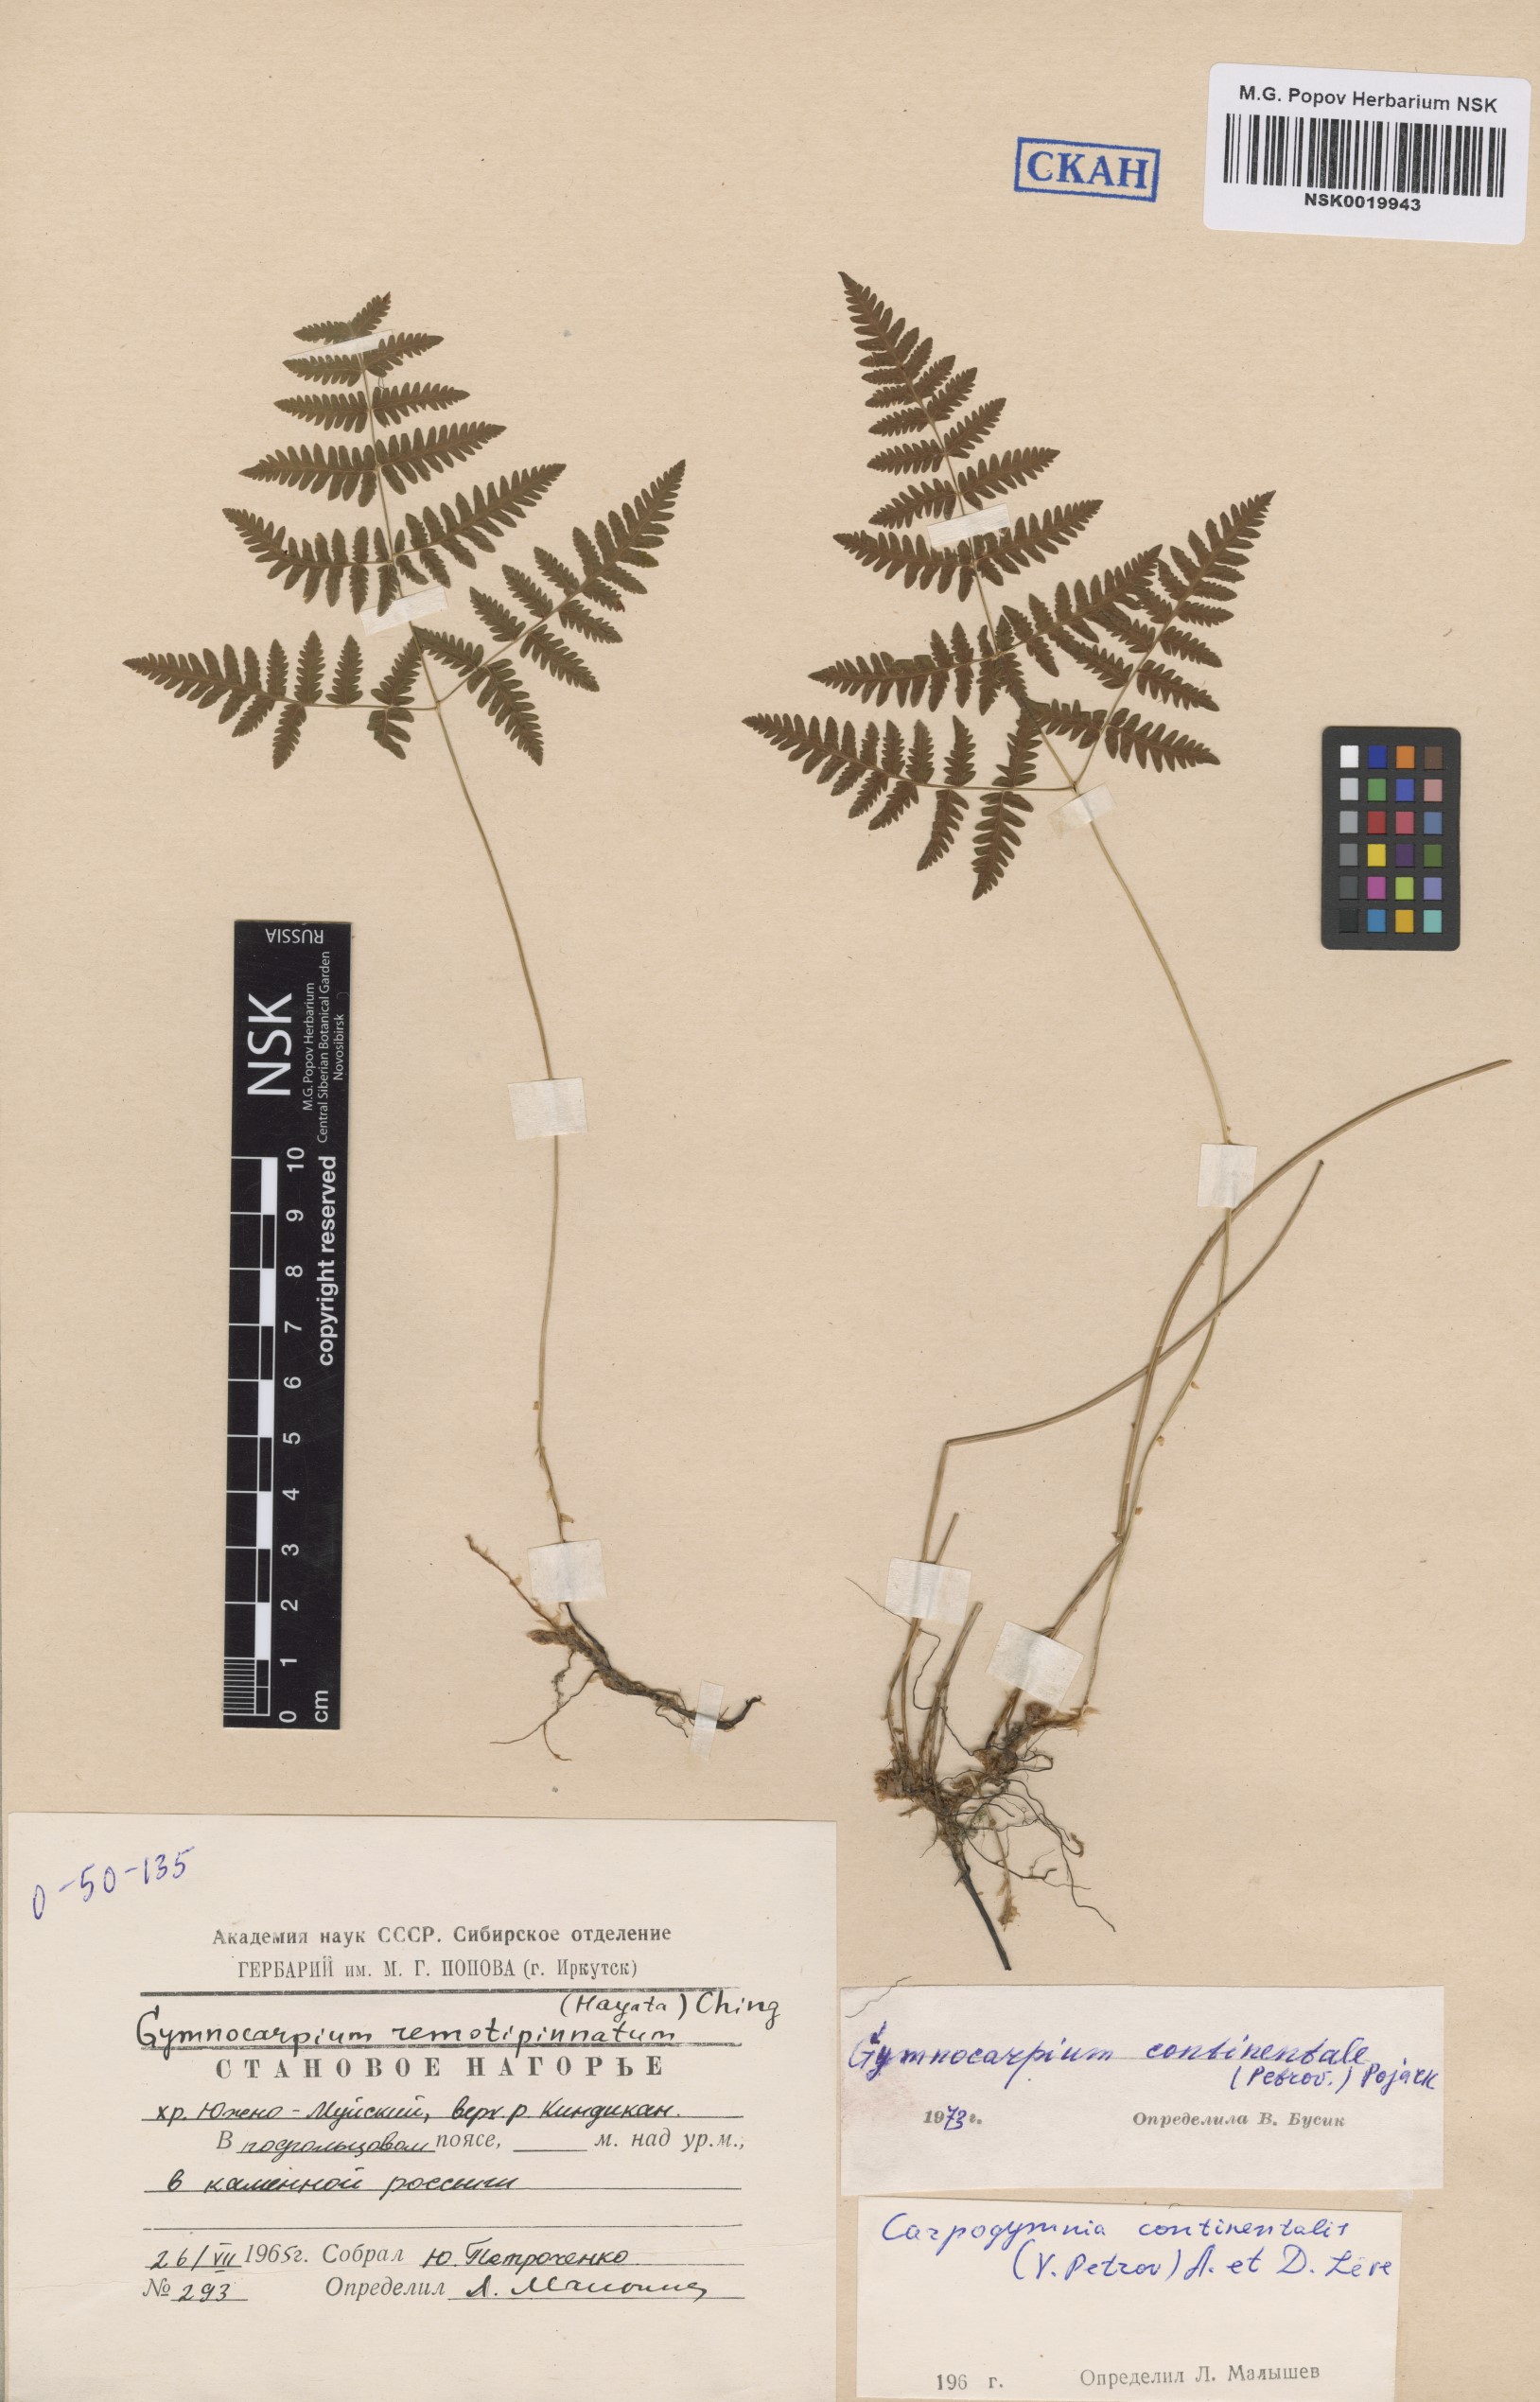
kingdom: Plantae
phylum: Tracheophyta
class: Polypodiopsida
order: Polypodiales
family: Cystopteridaceae
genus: Gymnocarpium
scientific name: Gymnocarpium continentale
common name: Asian oak fern
